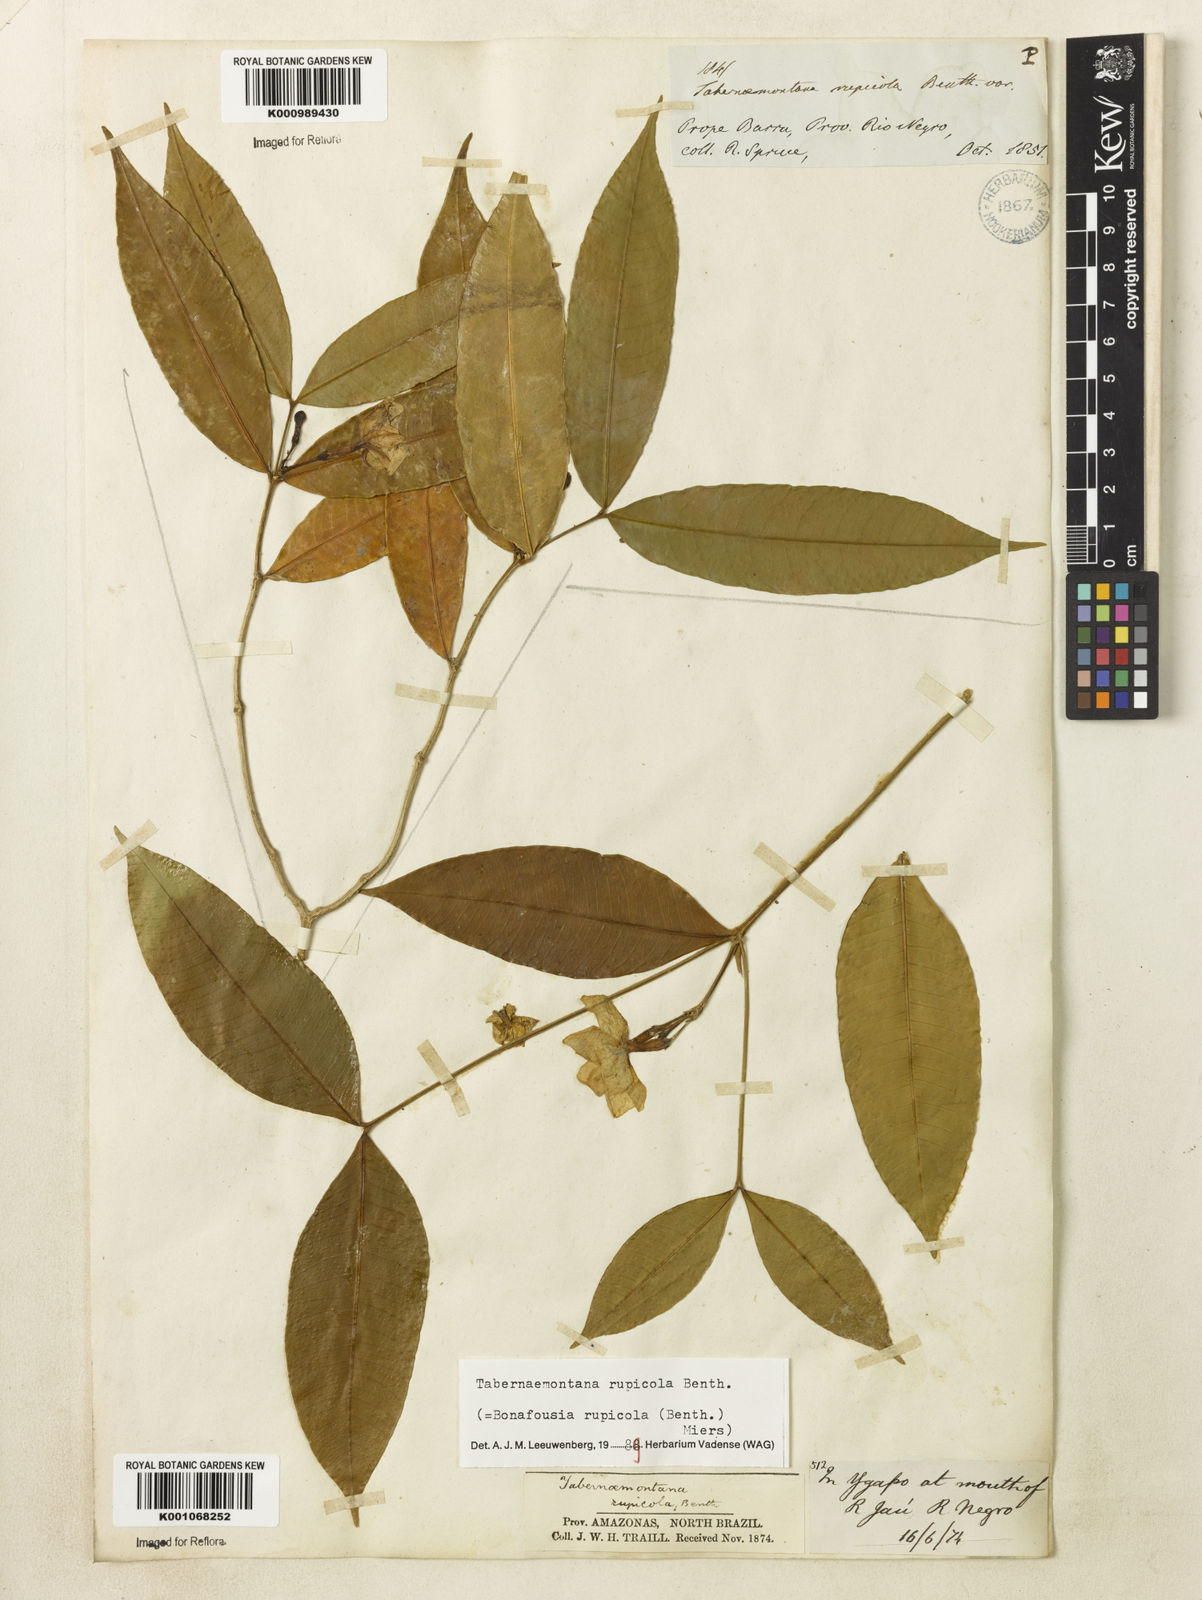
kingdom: Plantae
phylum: Tracheophyta
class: Magnoliopsida
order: Gentianales
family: Apocynaceae
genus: Tabernaemontana
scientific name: Tabernaemontana rupicola
